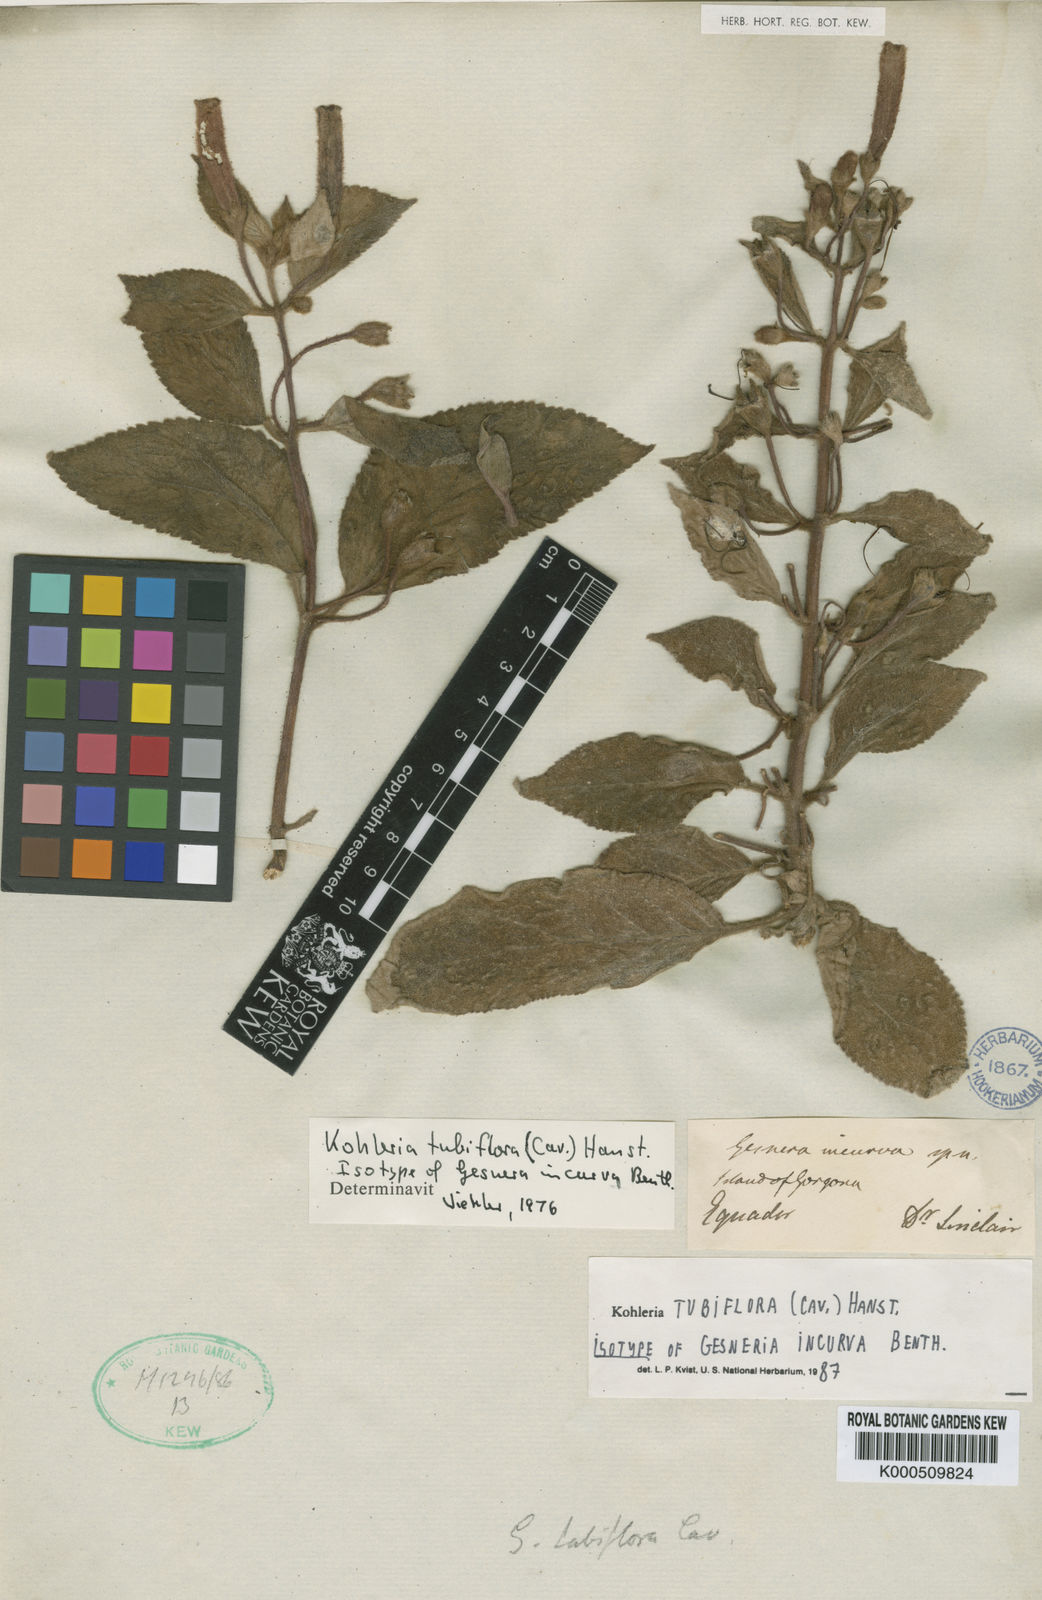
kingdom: Plantae
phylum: Tracheophyta
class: Magnoliopsida
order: Lamiales
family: Gesneriaceae
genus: Kohleria
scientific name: Kohleria tubiflora
